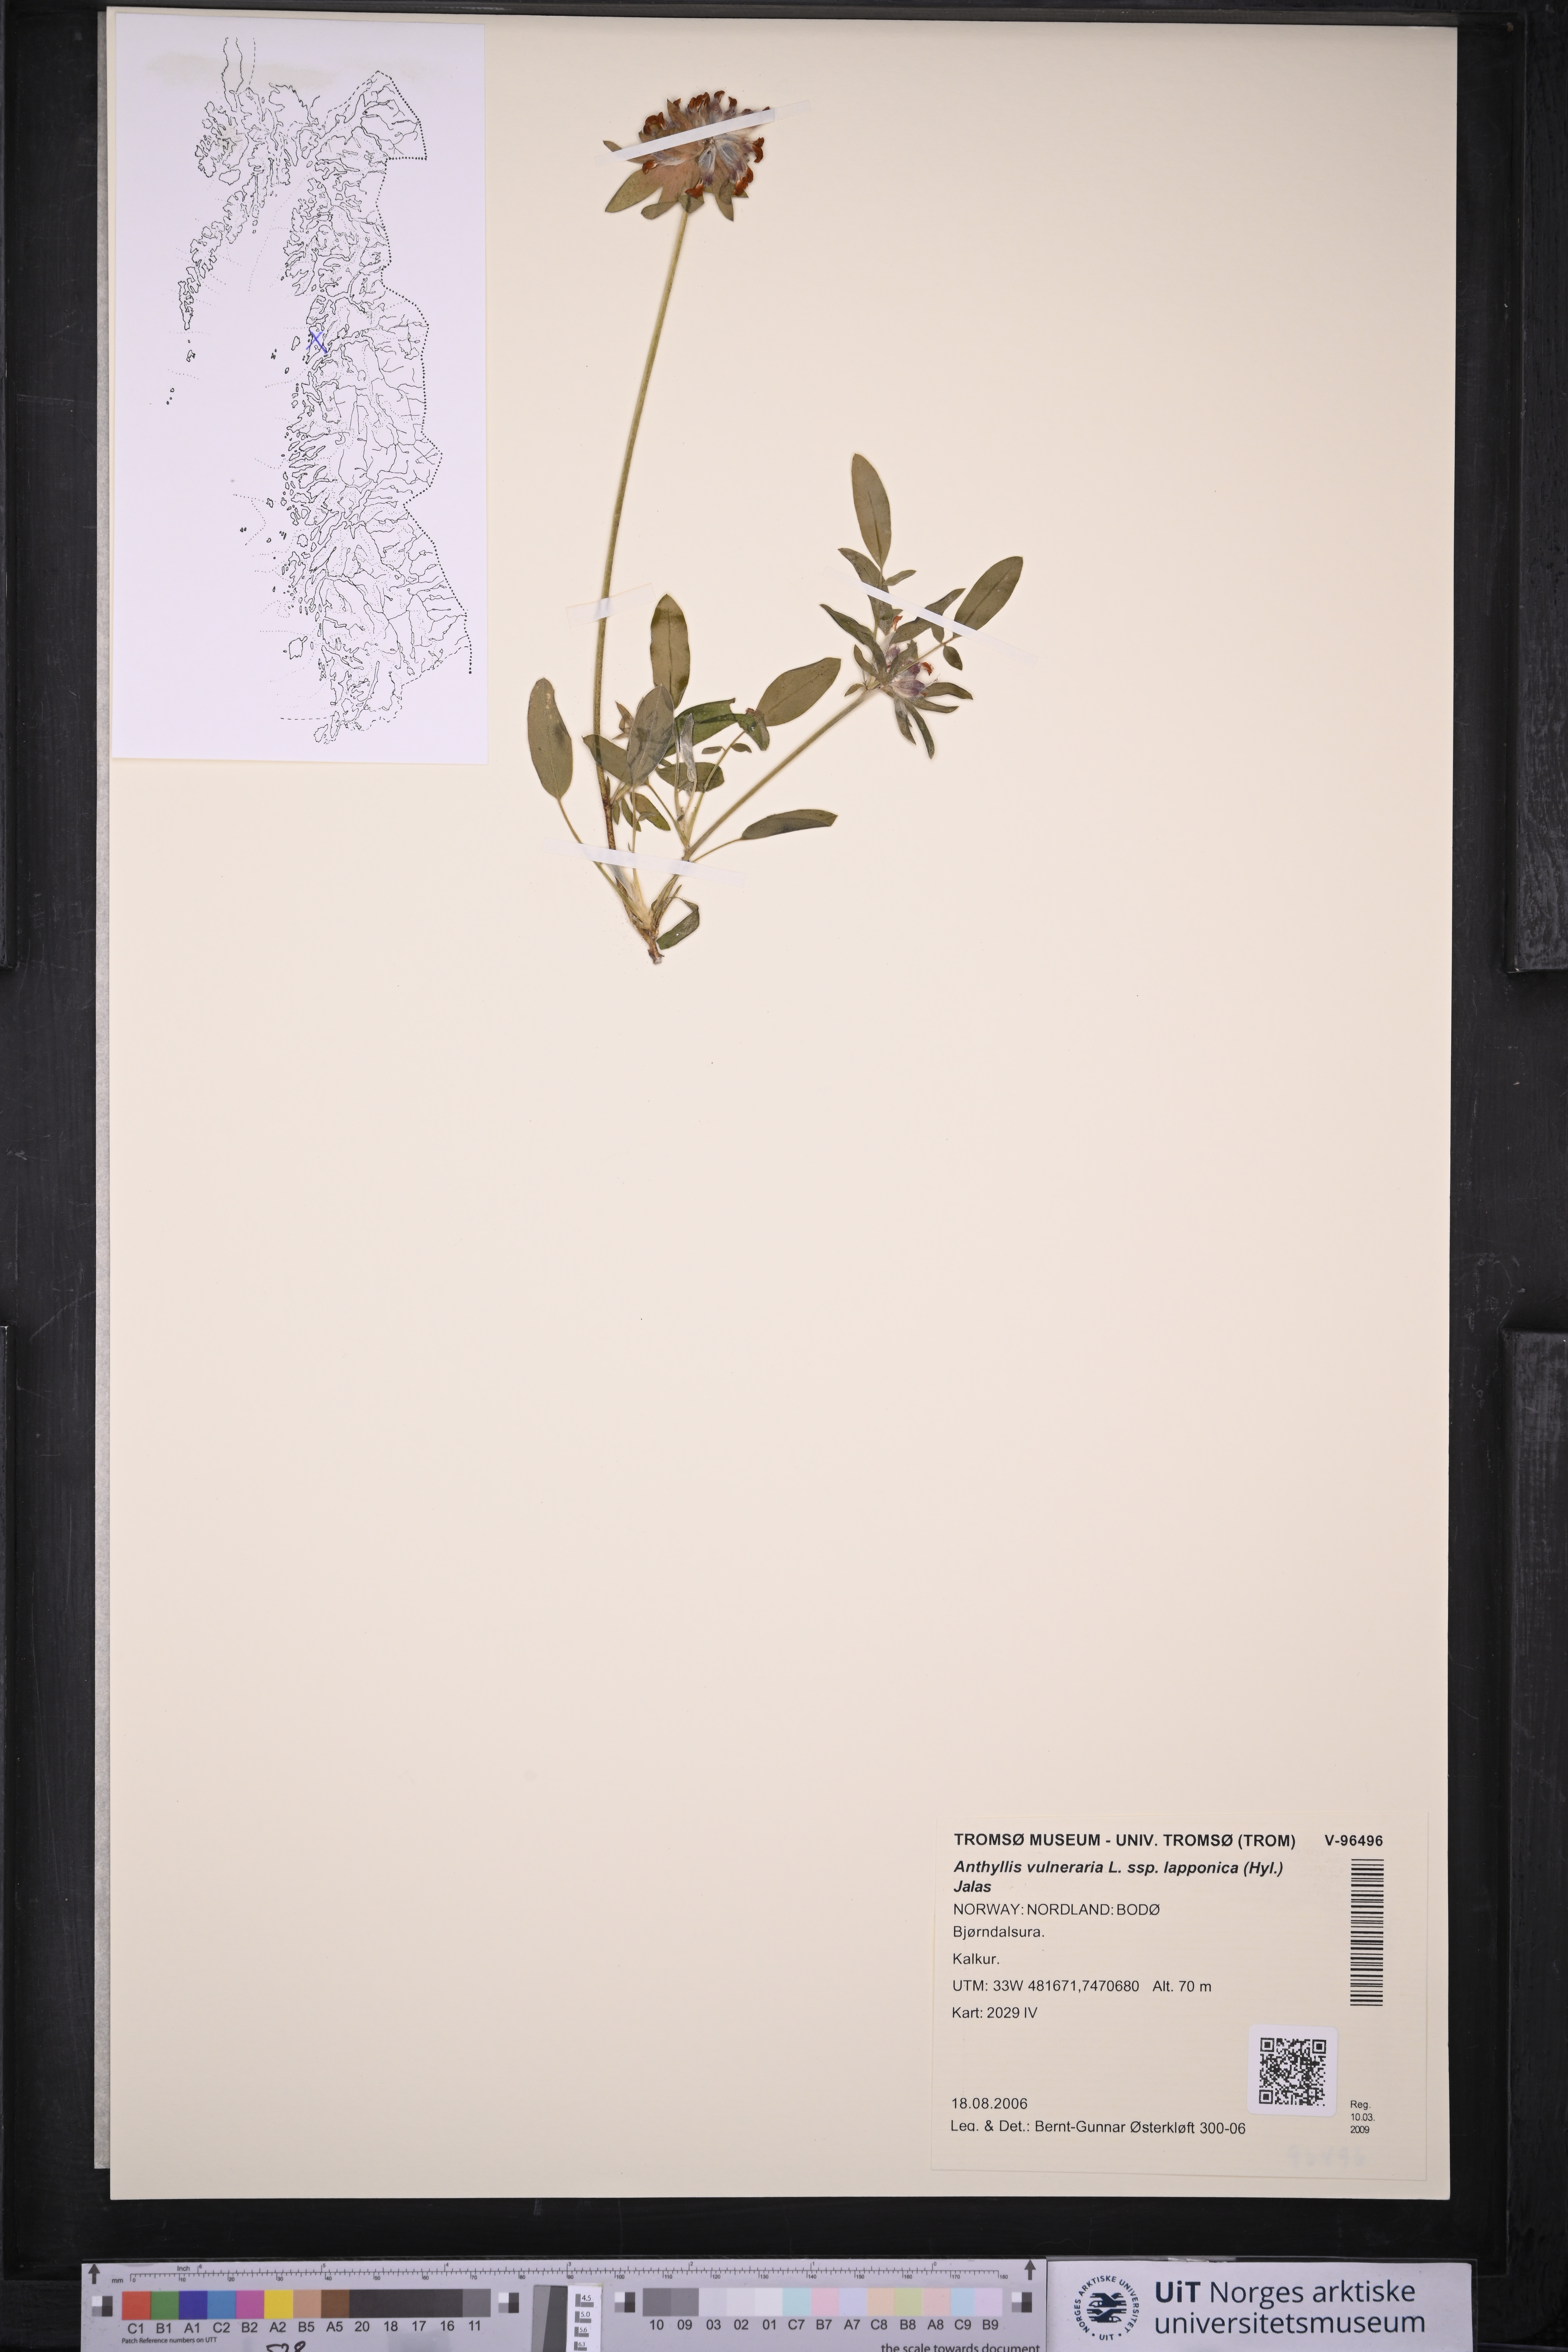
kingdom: Plantae
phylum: Tracheophyta
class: Magnoliopsida
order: Fabales
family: Fabaceae
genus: Anthyllis
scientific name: Anthyllis vulneraria
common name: Kidney vetch
